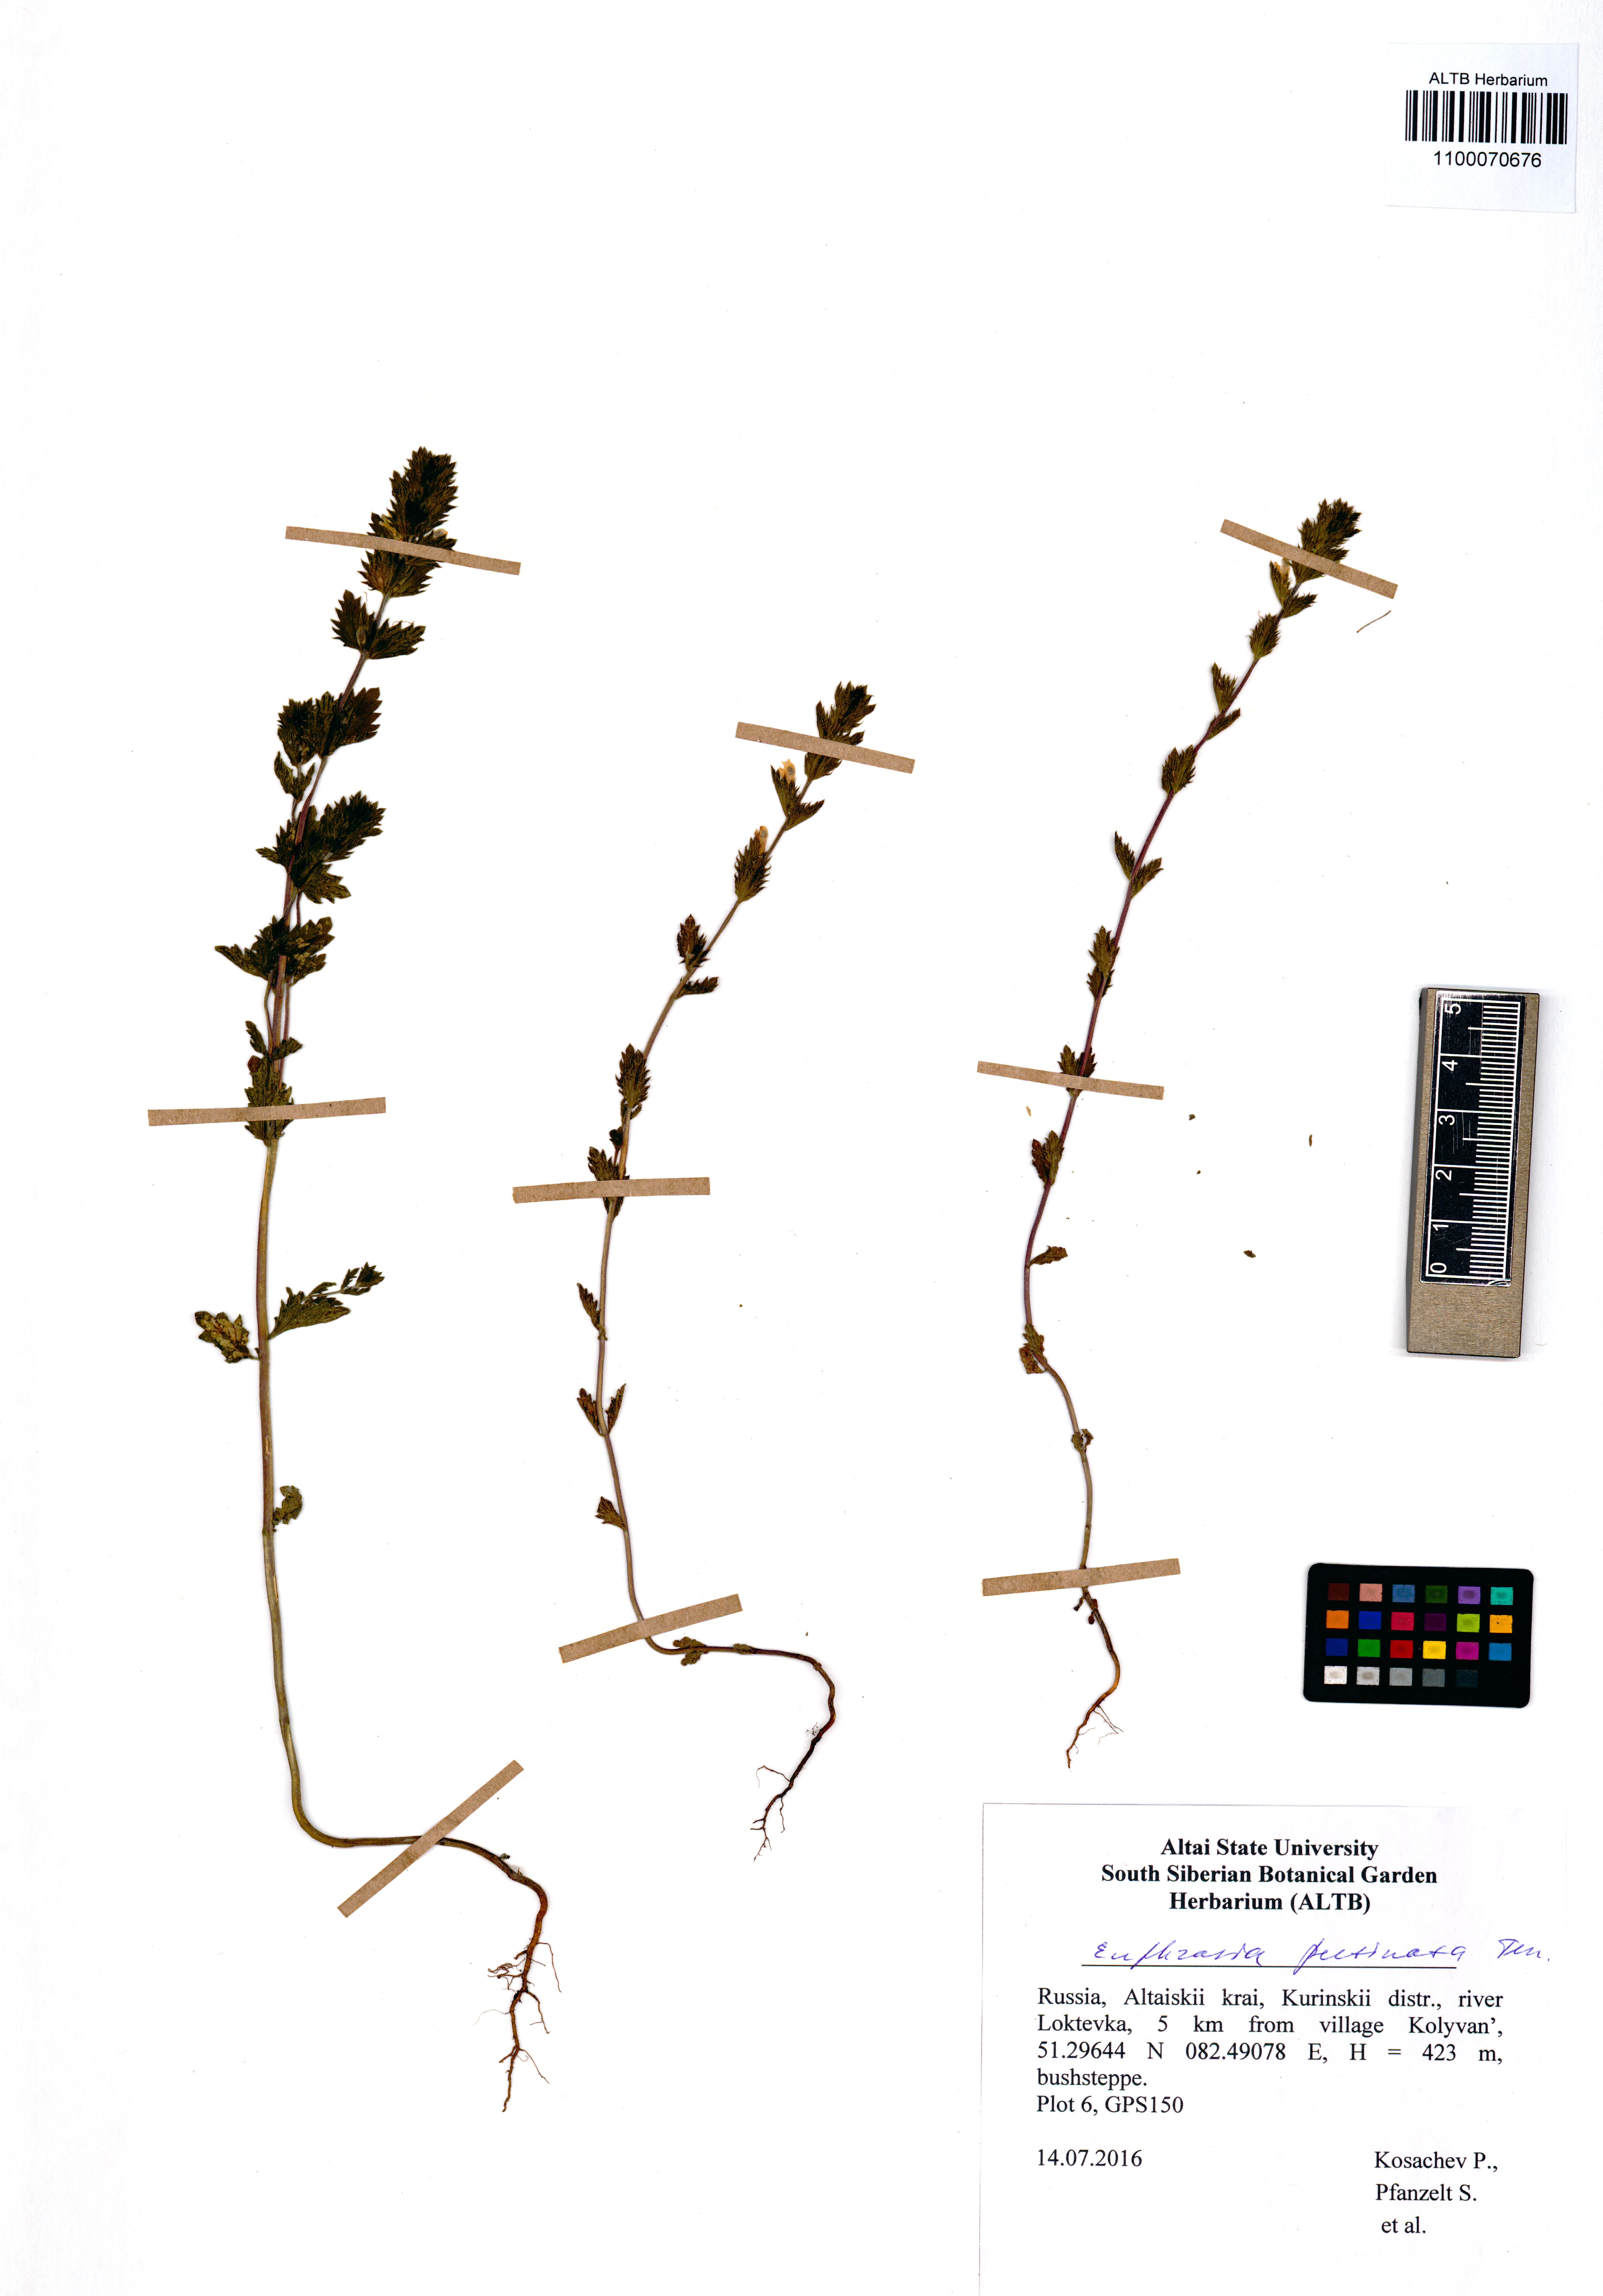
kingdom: Plantae
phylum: Tracheophyta
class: Magnoliopsida
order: Lamiales
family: Orobanchaceae
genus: Euphrasia
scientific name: Euphrasia pectinata
